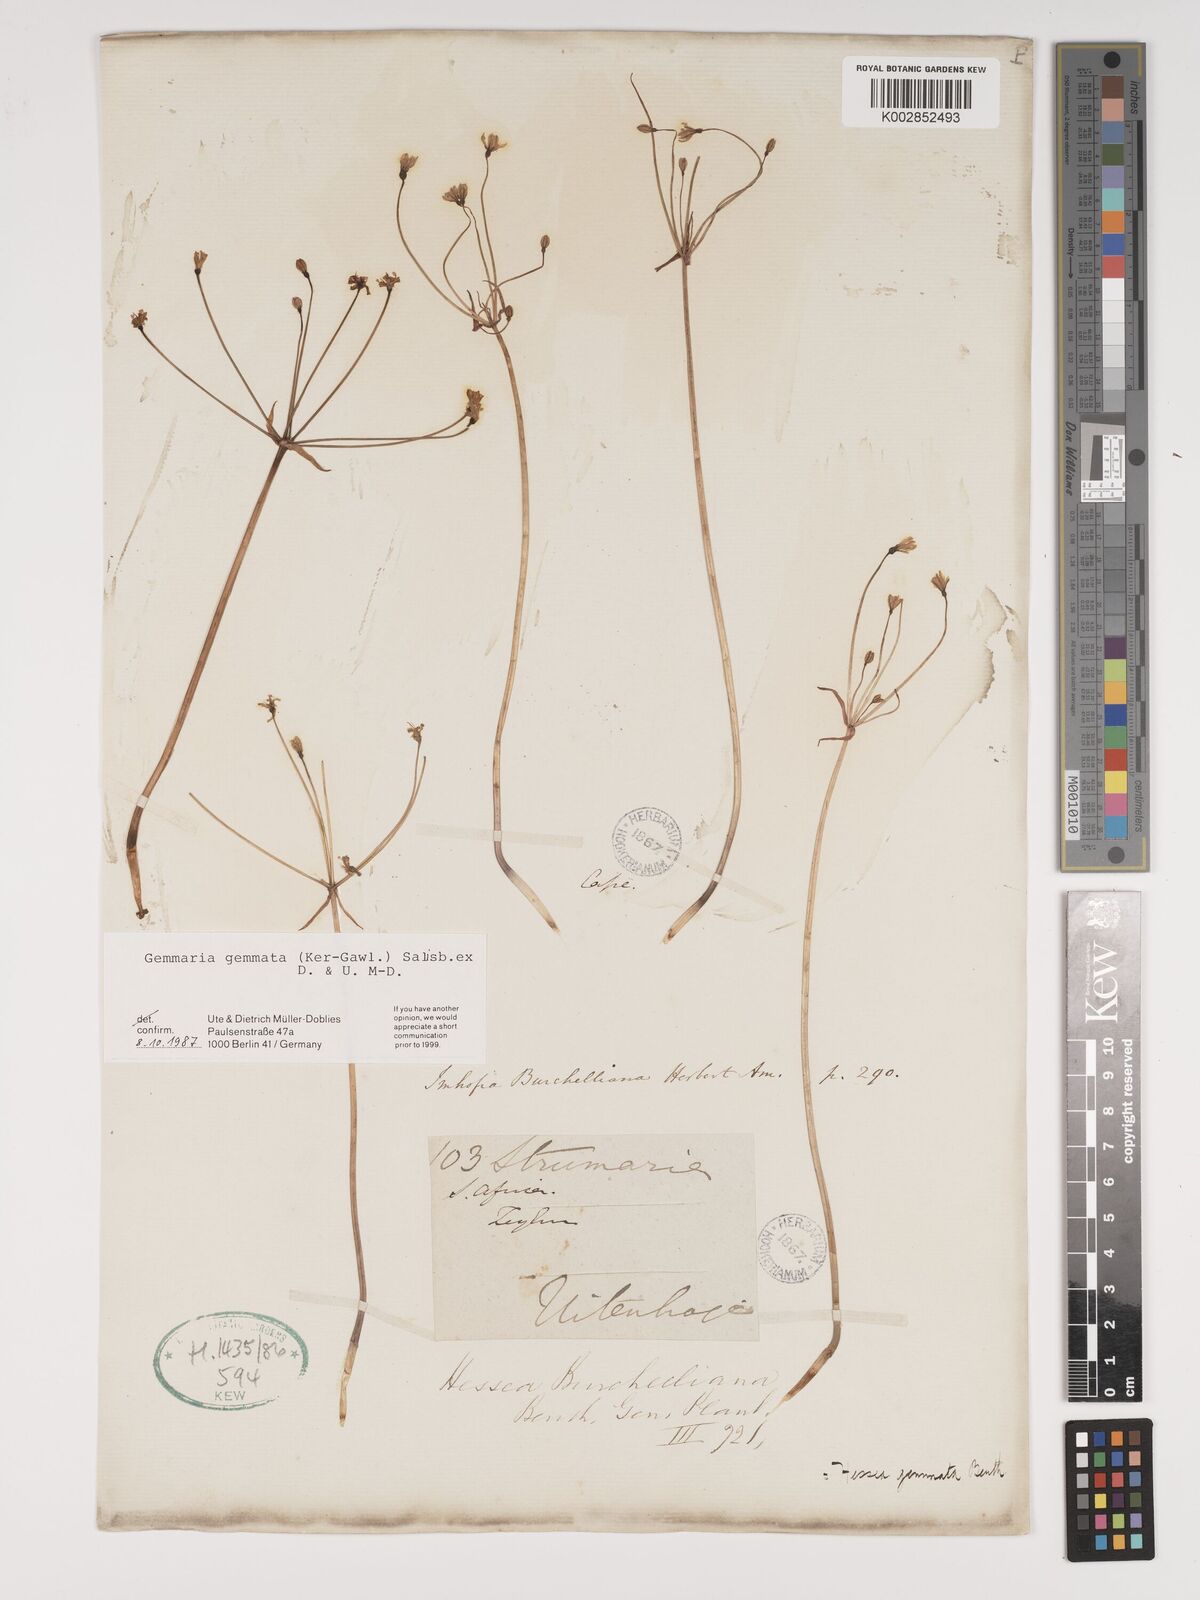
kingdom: Plantae
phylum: Tracheophyta
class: Liliopsida
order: Asparagales
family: Amaryllidaceae
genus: Strumaria
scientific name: Strumaria gemmata
